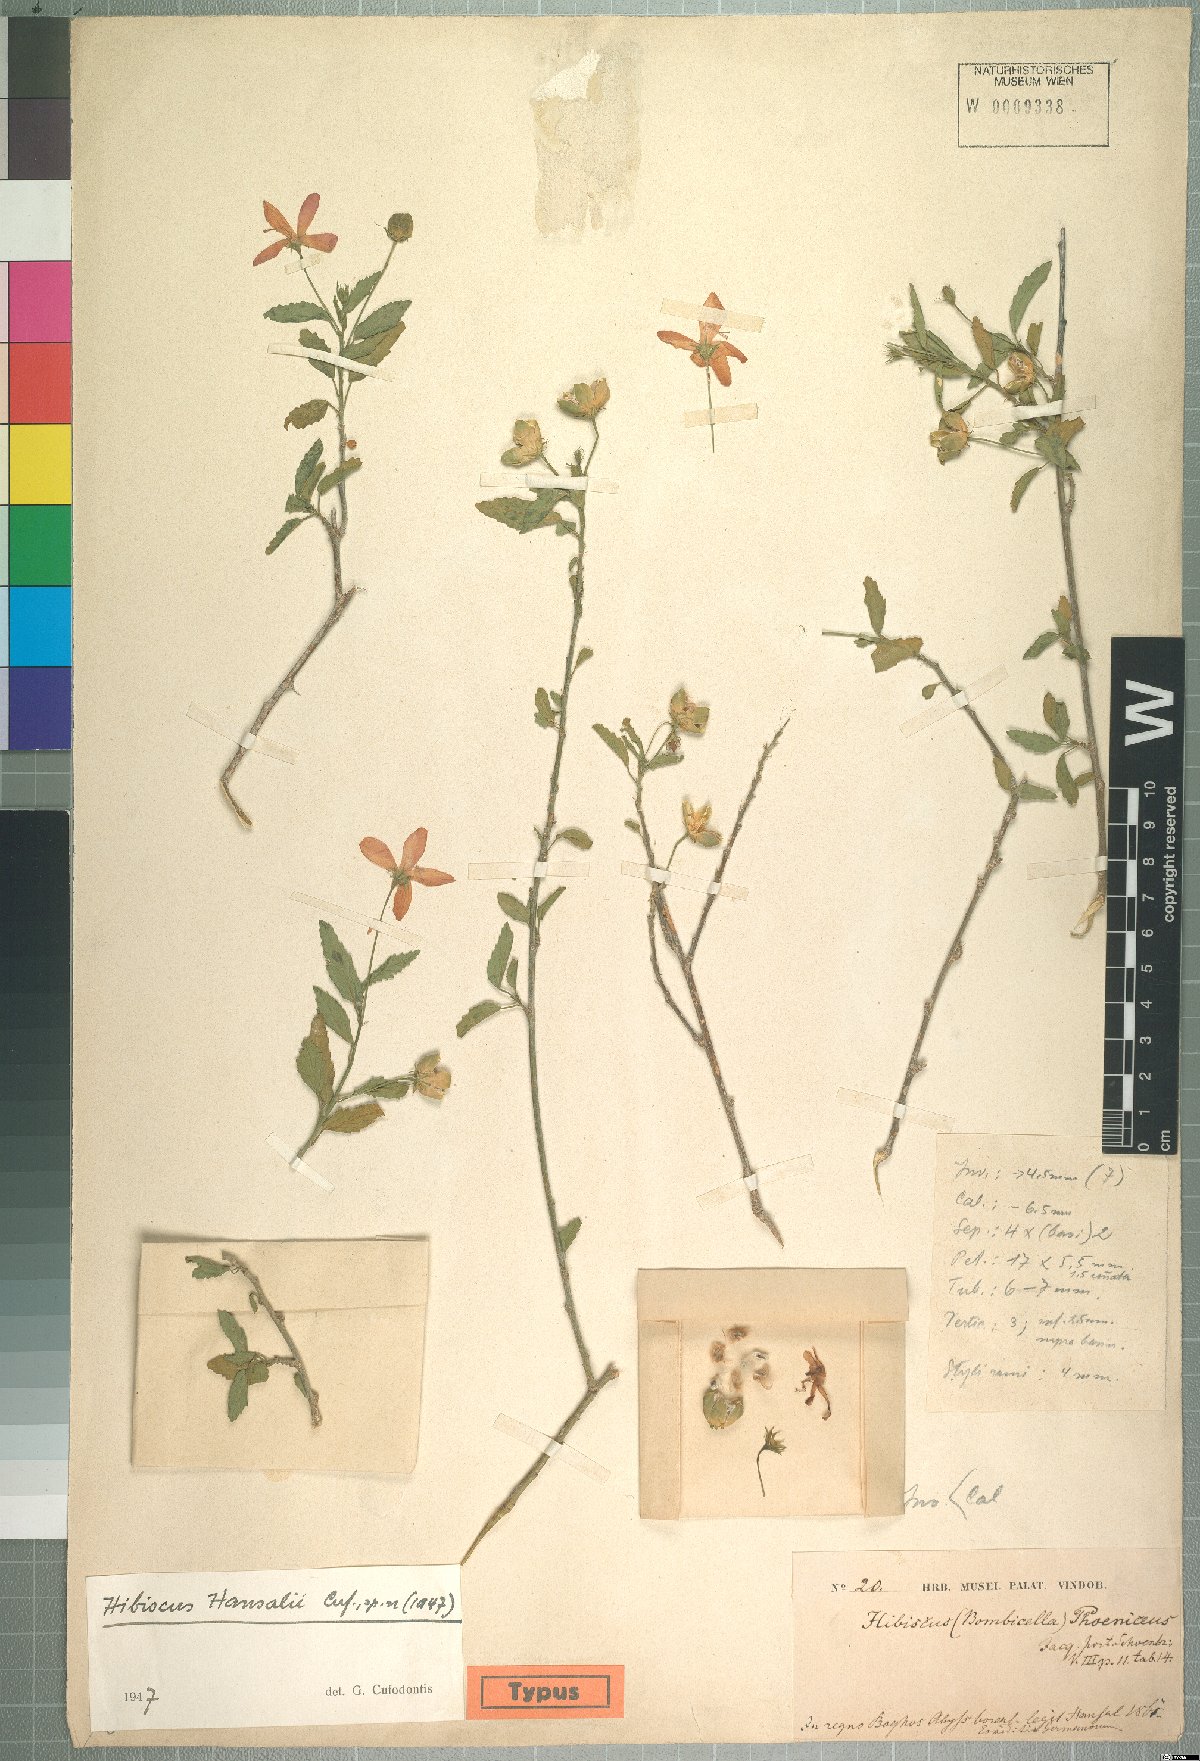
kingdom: Plantae
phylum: Tracheophyta
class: Magnoliopsida
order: Malvales
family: Malvaceae
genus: Hibiscus
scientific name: Hibiscus deflersii
